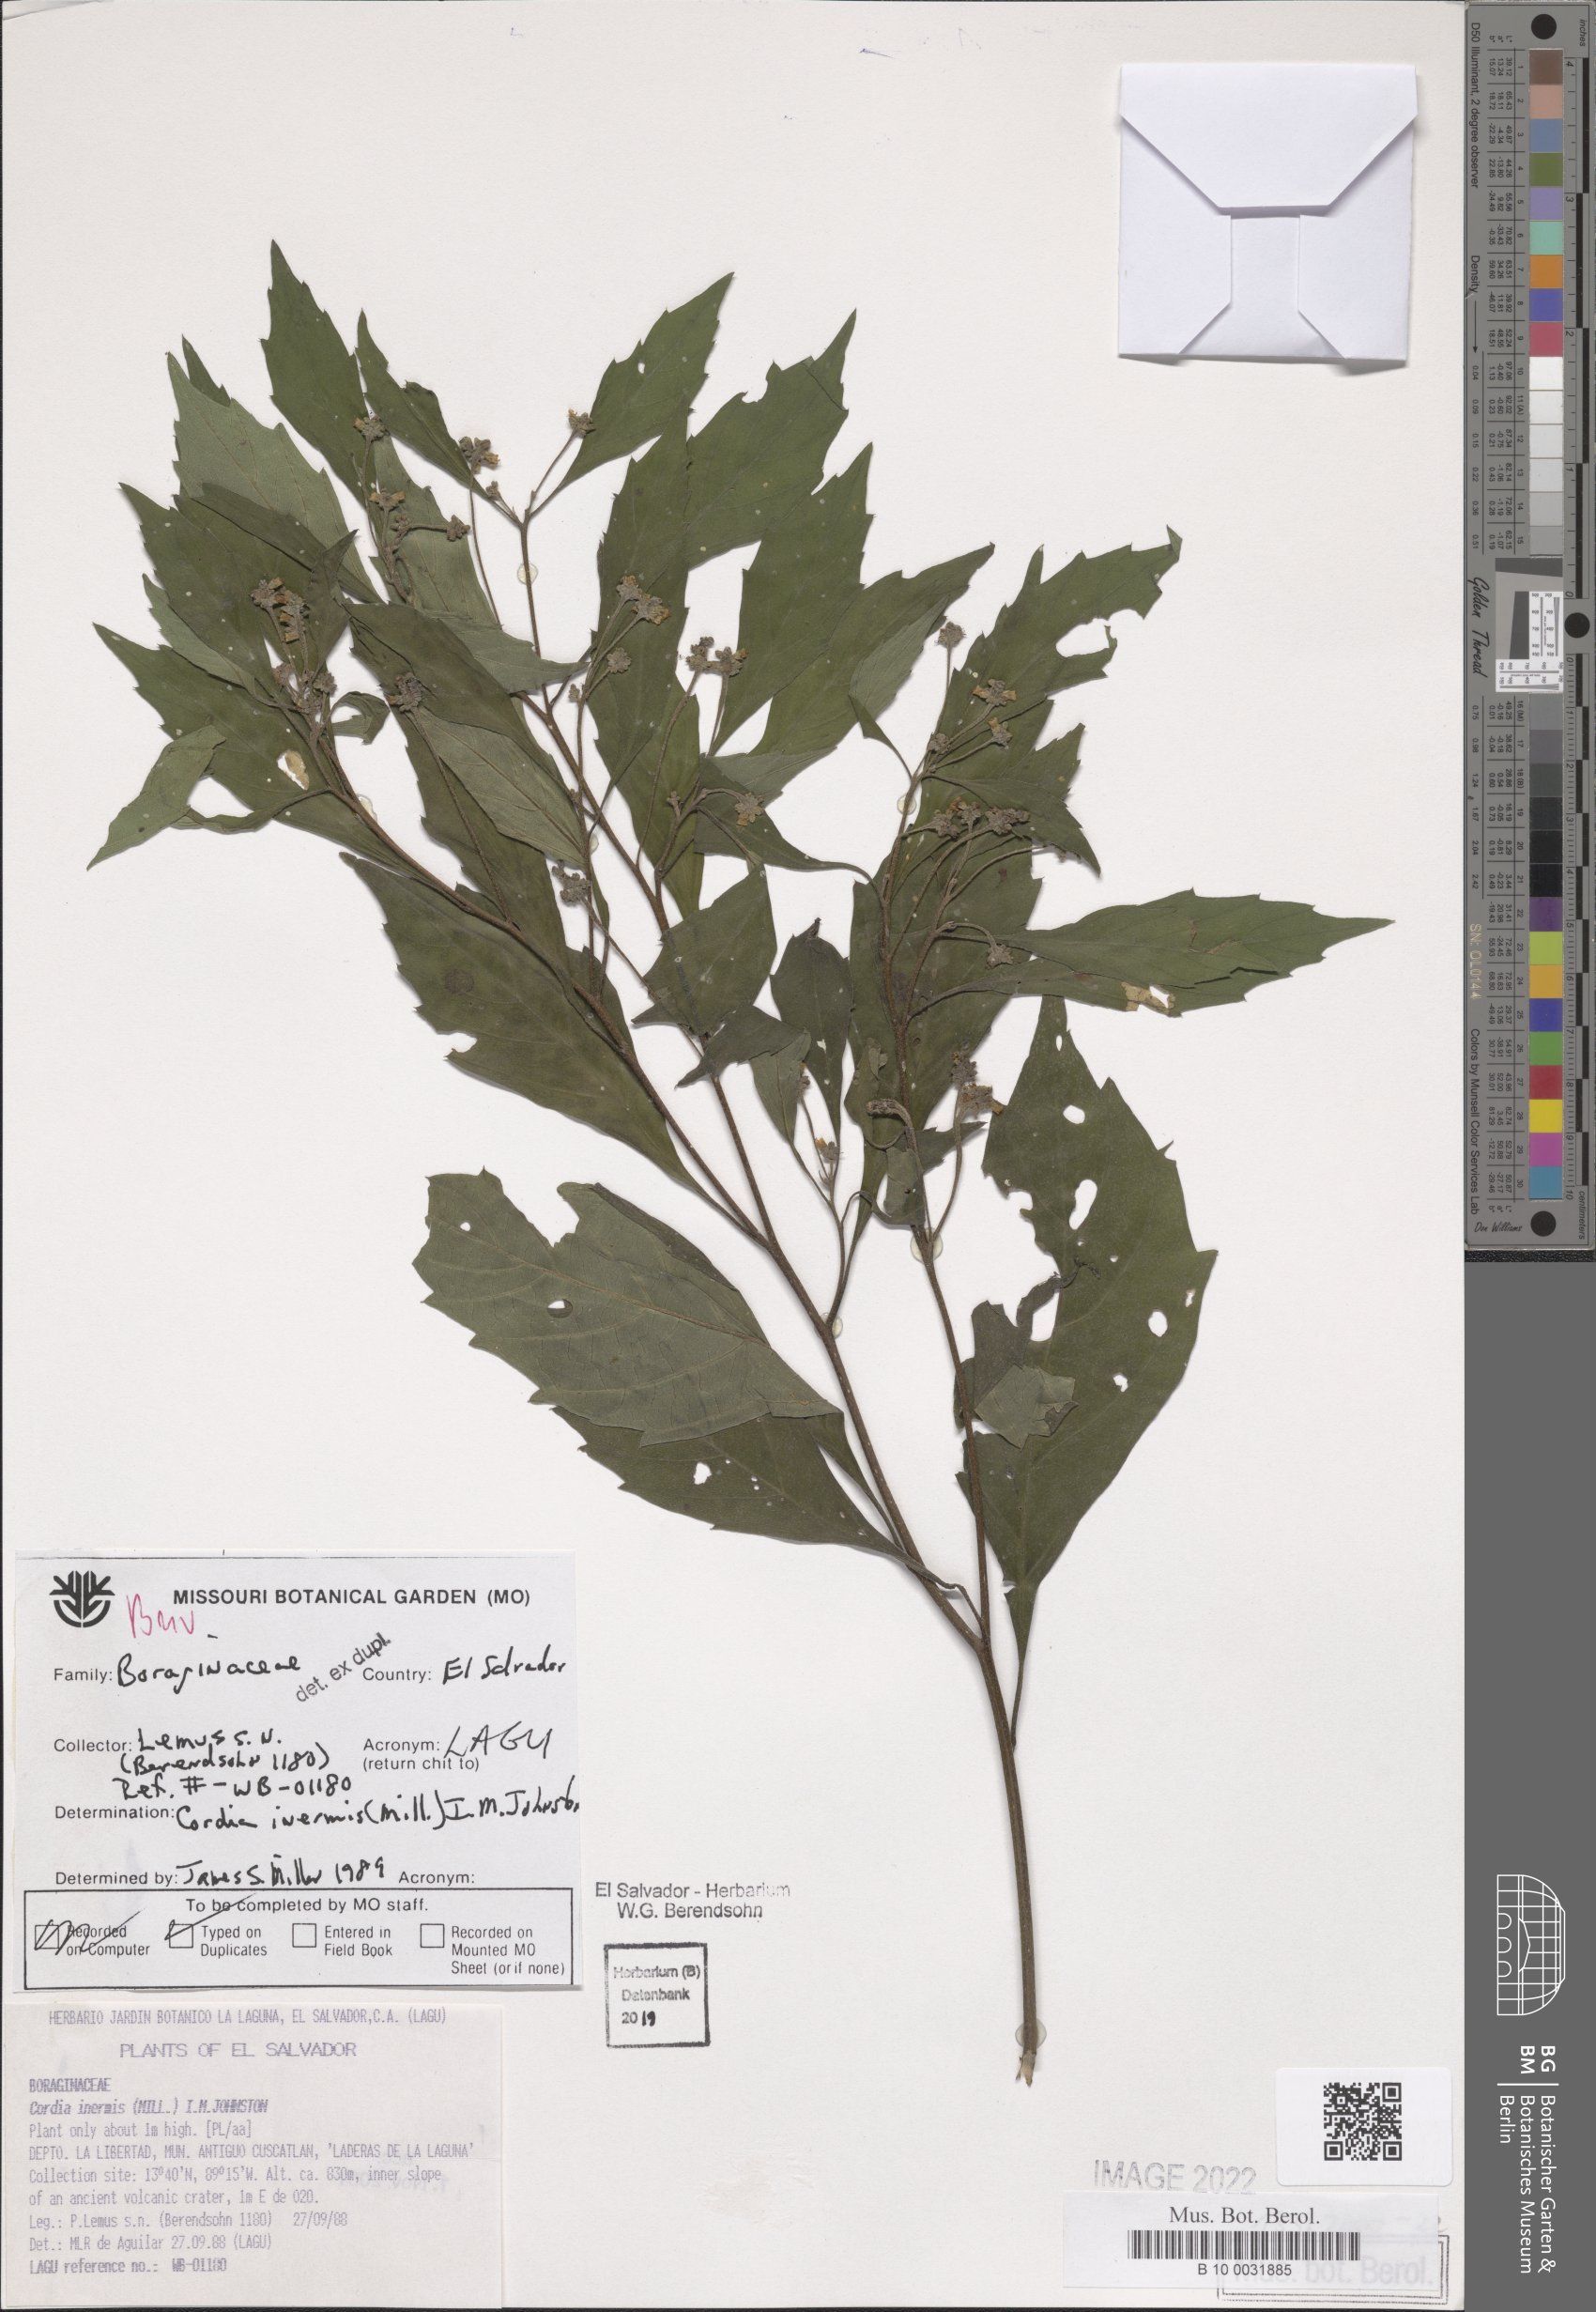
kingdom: Plantae
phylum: Tracheophyta
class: Magnoliopsida
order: Boraginales
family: Cordiaceae
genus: Varronia
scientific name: Varronia inermis
